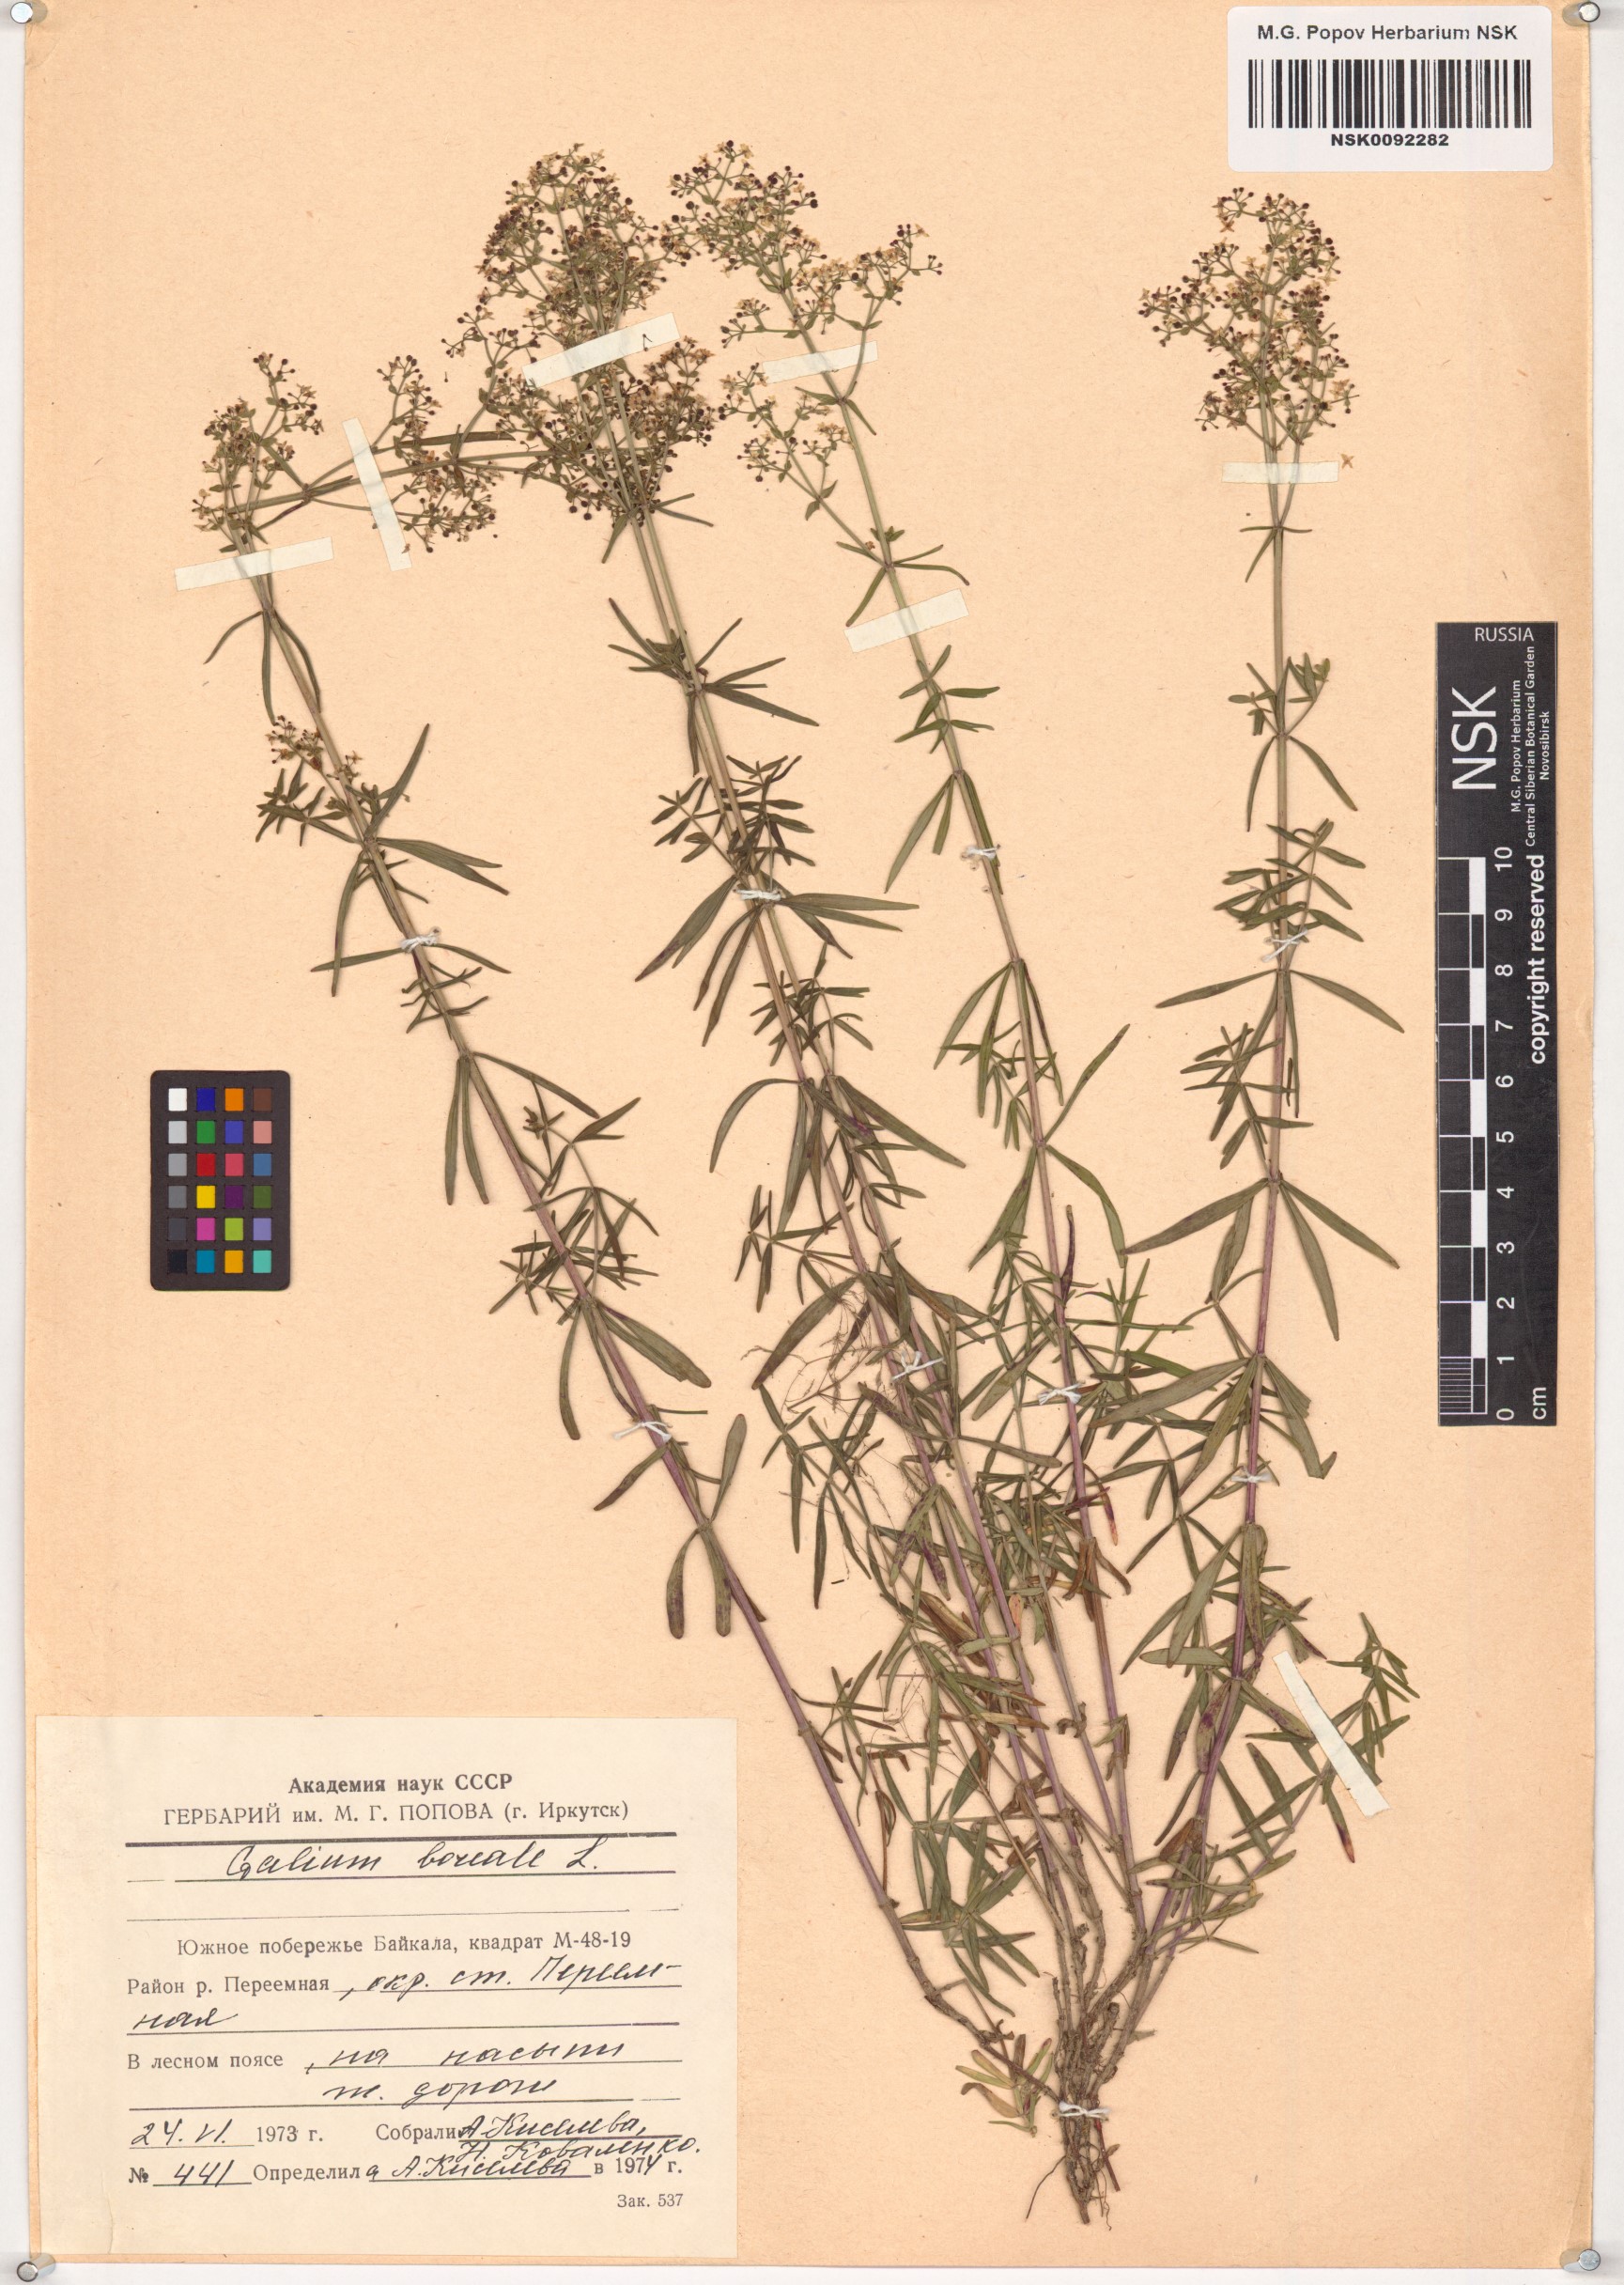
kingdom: Plantae
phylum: Tracheophyta
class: Magnoliopsida
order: Gentianales
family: Rubiaceae
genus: Galium
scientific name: Galium boreale
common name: Northern bedstraw
